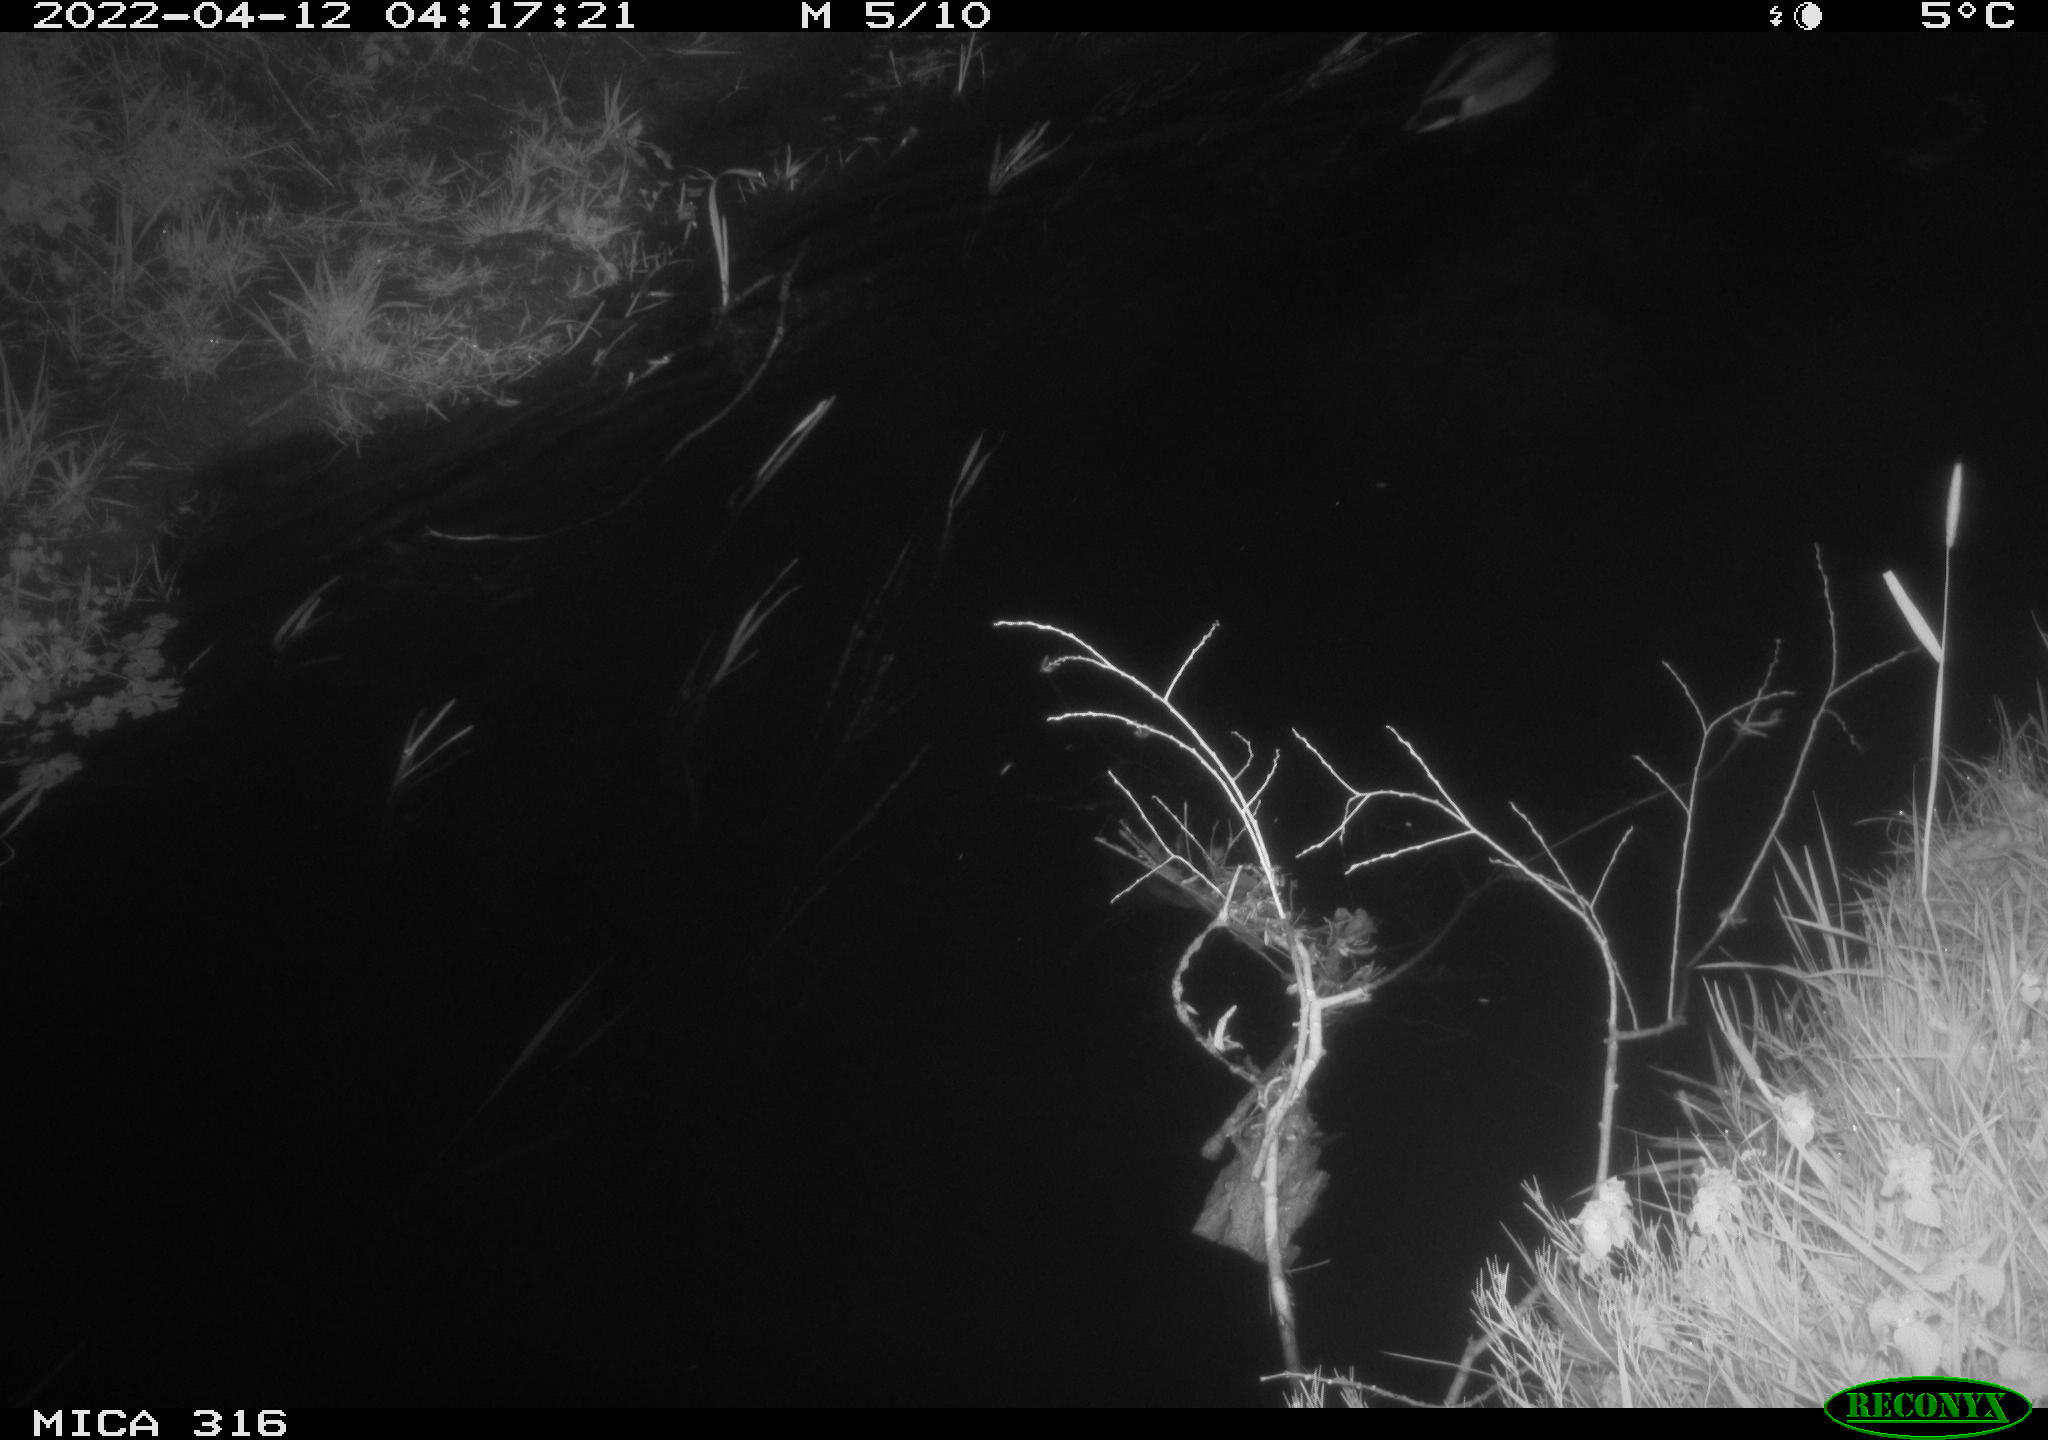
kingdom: Animalia
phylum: Chordata
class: Aves
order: Anseriformes
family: Anatidae
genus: Anas
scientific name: Anas platyrhynchos
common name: Mallard
